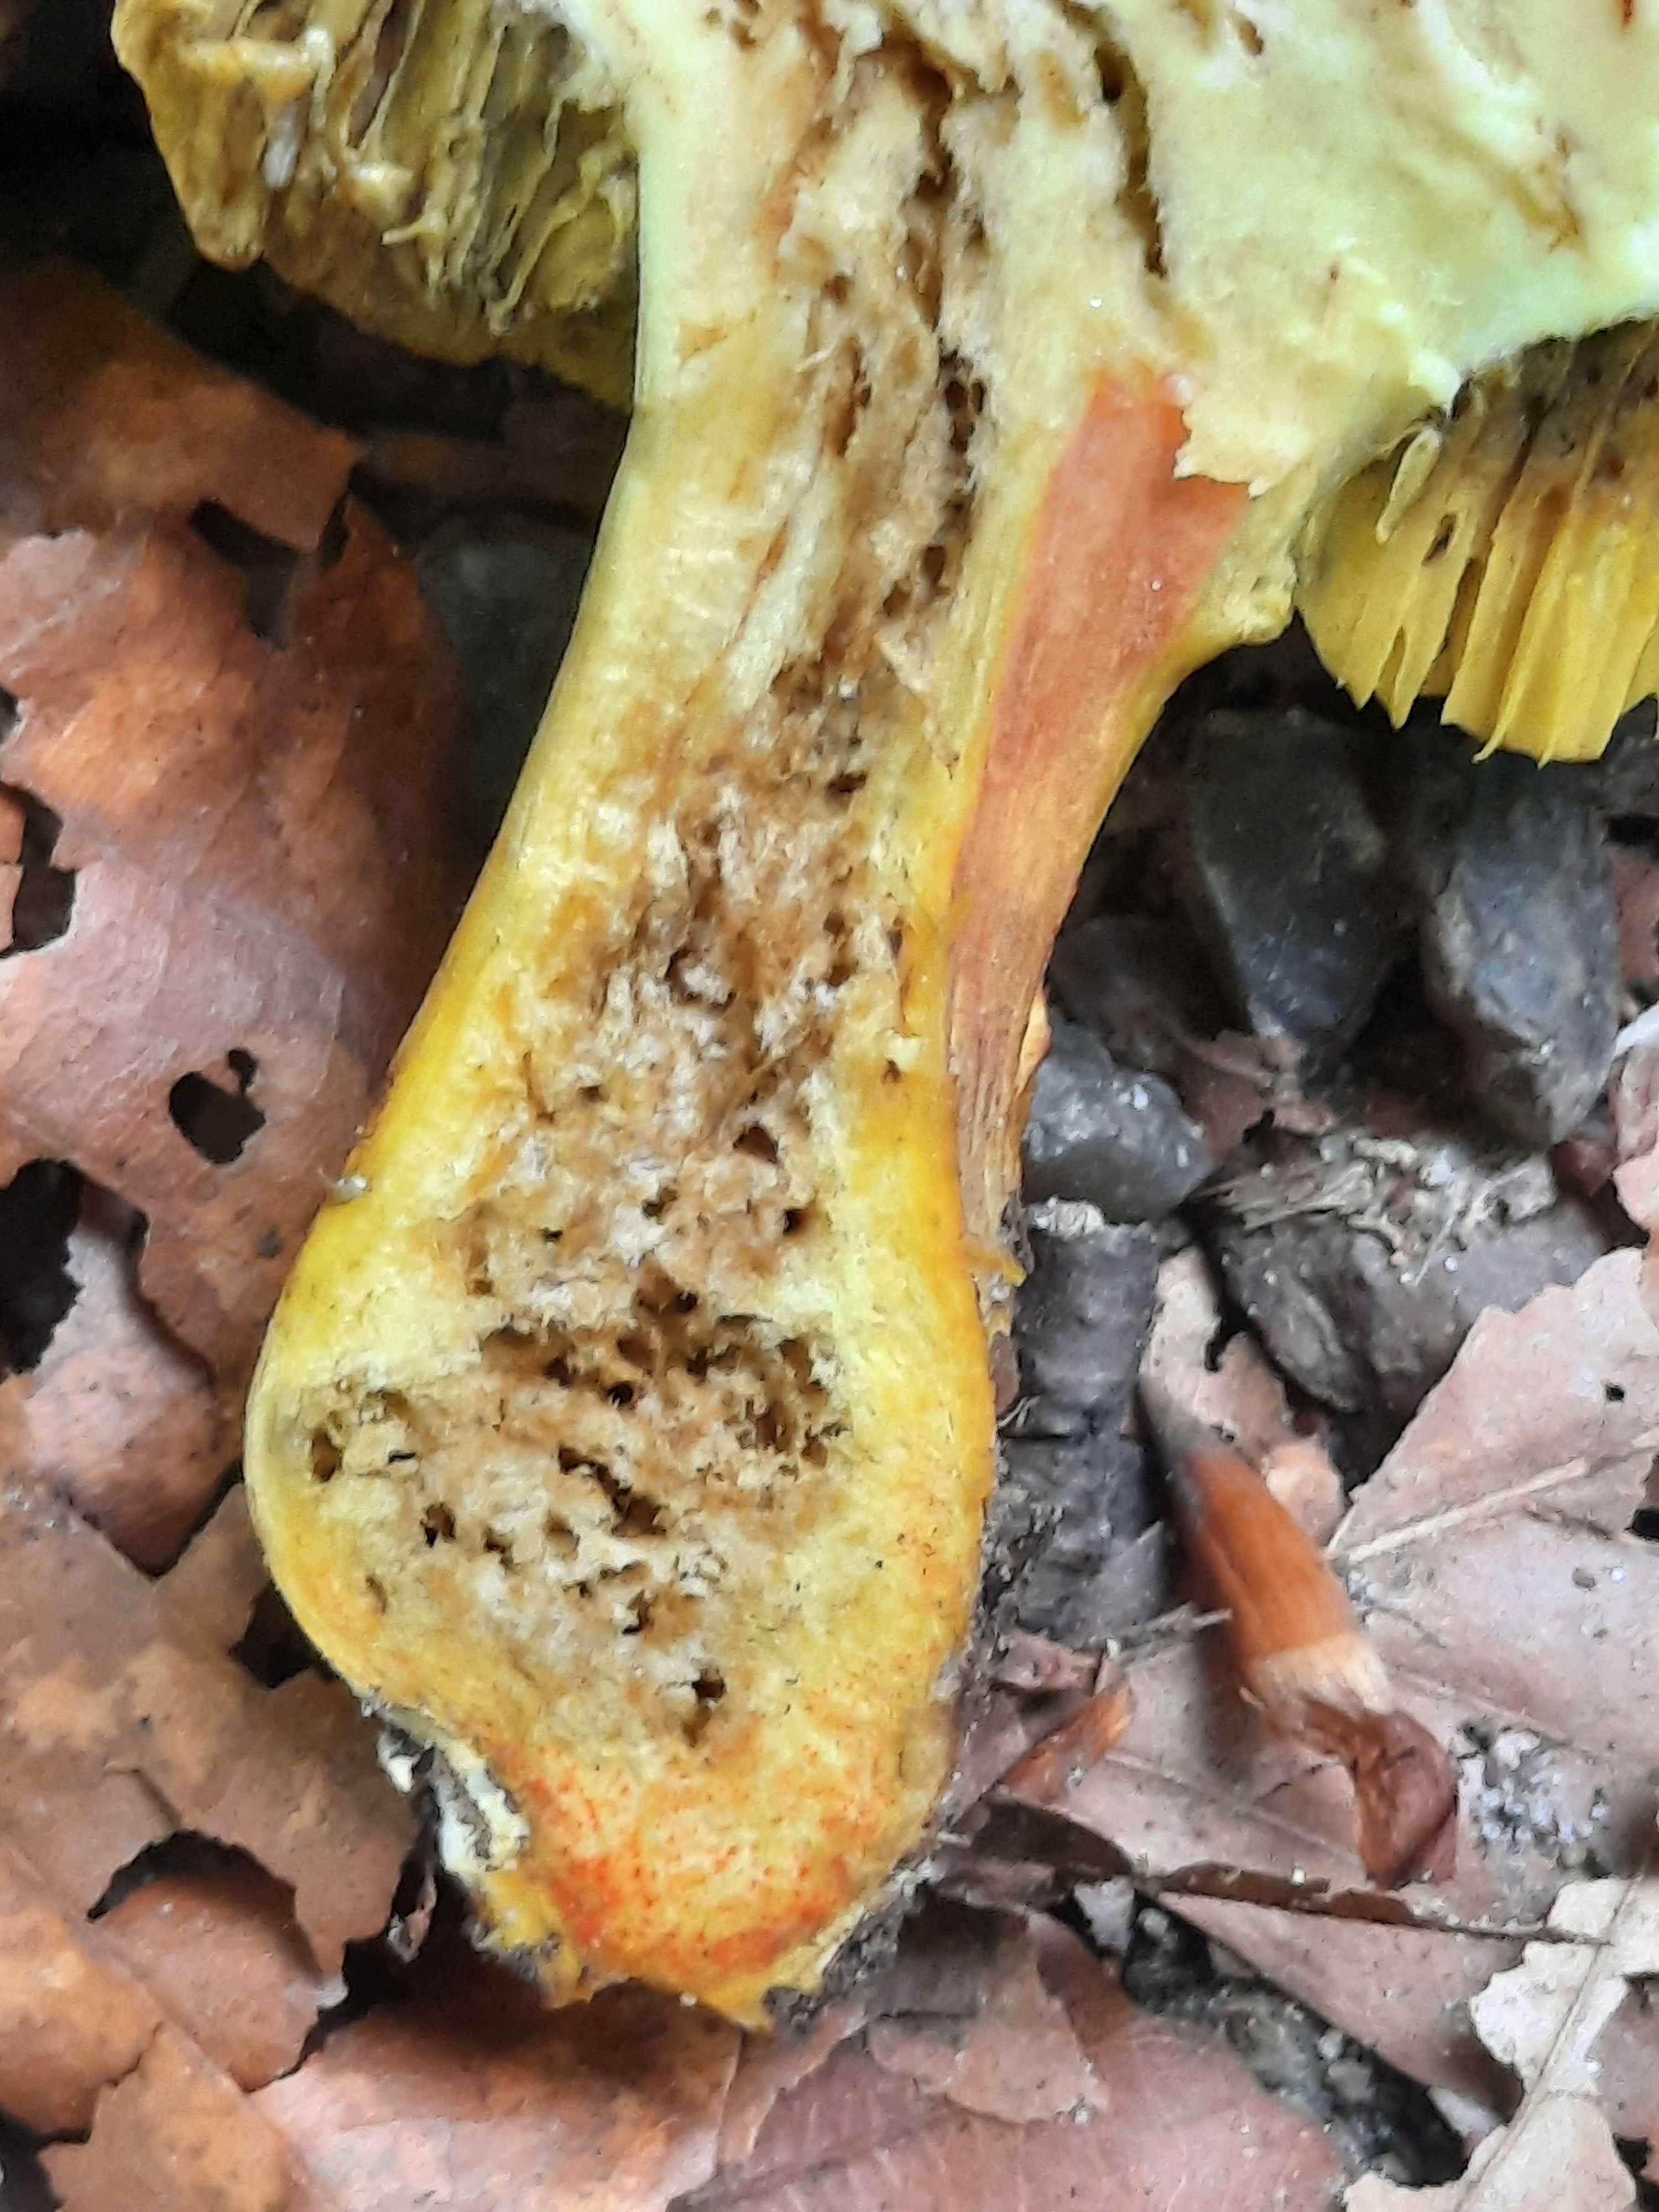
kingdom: Fungi
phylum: Basidiomycota
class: Agaricomycetes
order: Boletales
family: Boletaceae
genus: Hortiboletus
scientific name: Hortiboletus engelii
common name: fersken-rørhat
